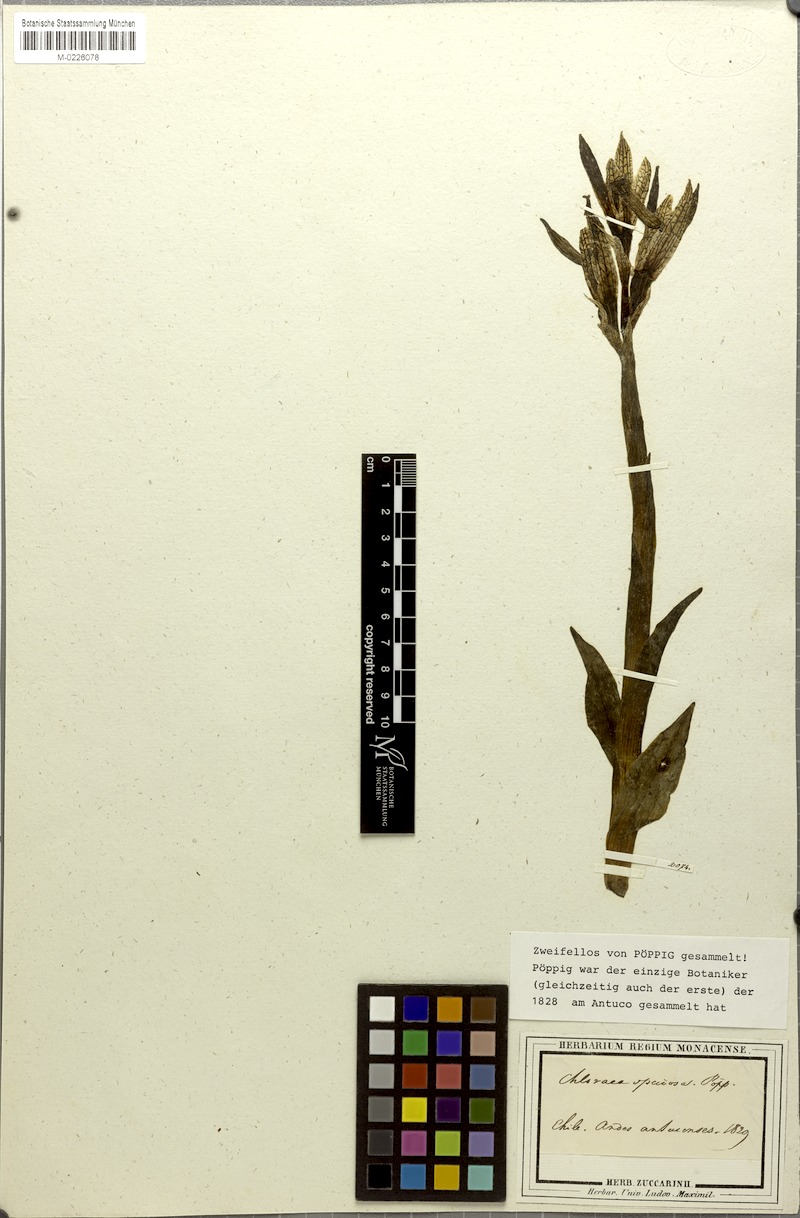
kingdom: Plantae
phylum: Tracheophyta
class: Liliopsida
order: Asparagales
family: Orchidaceae
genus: Chloraea
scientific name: Chloraea speciosa
